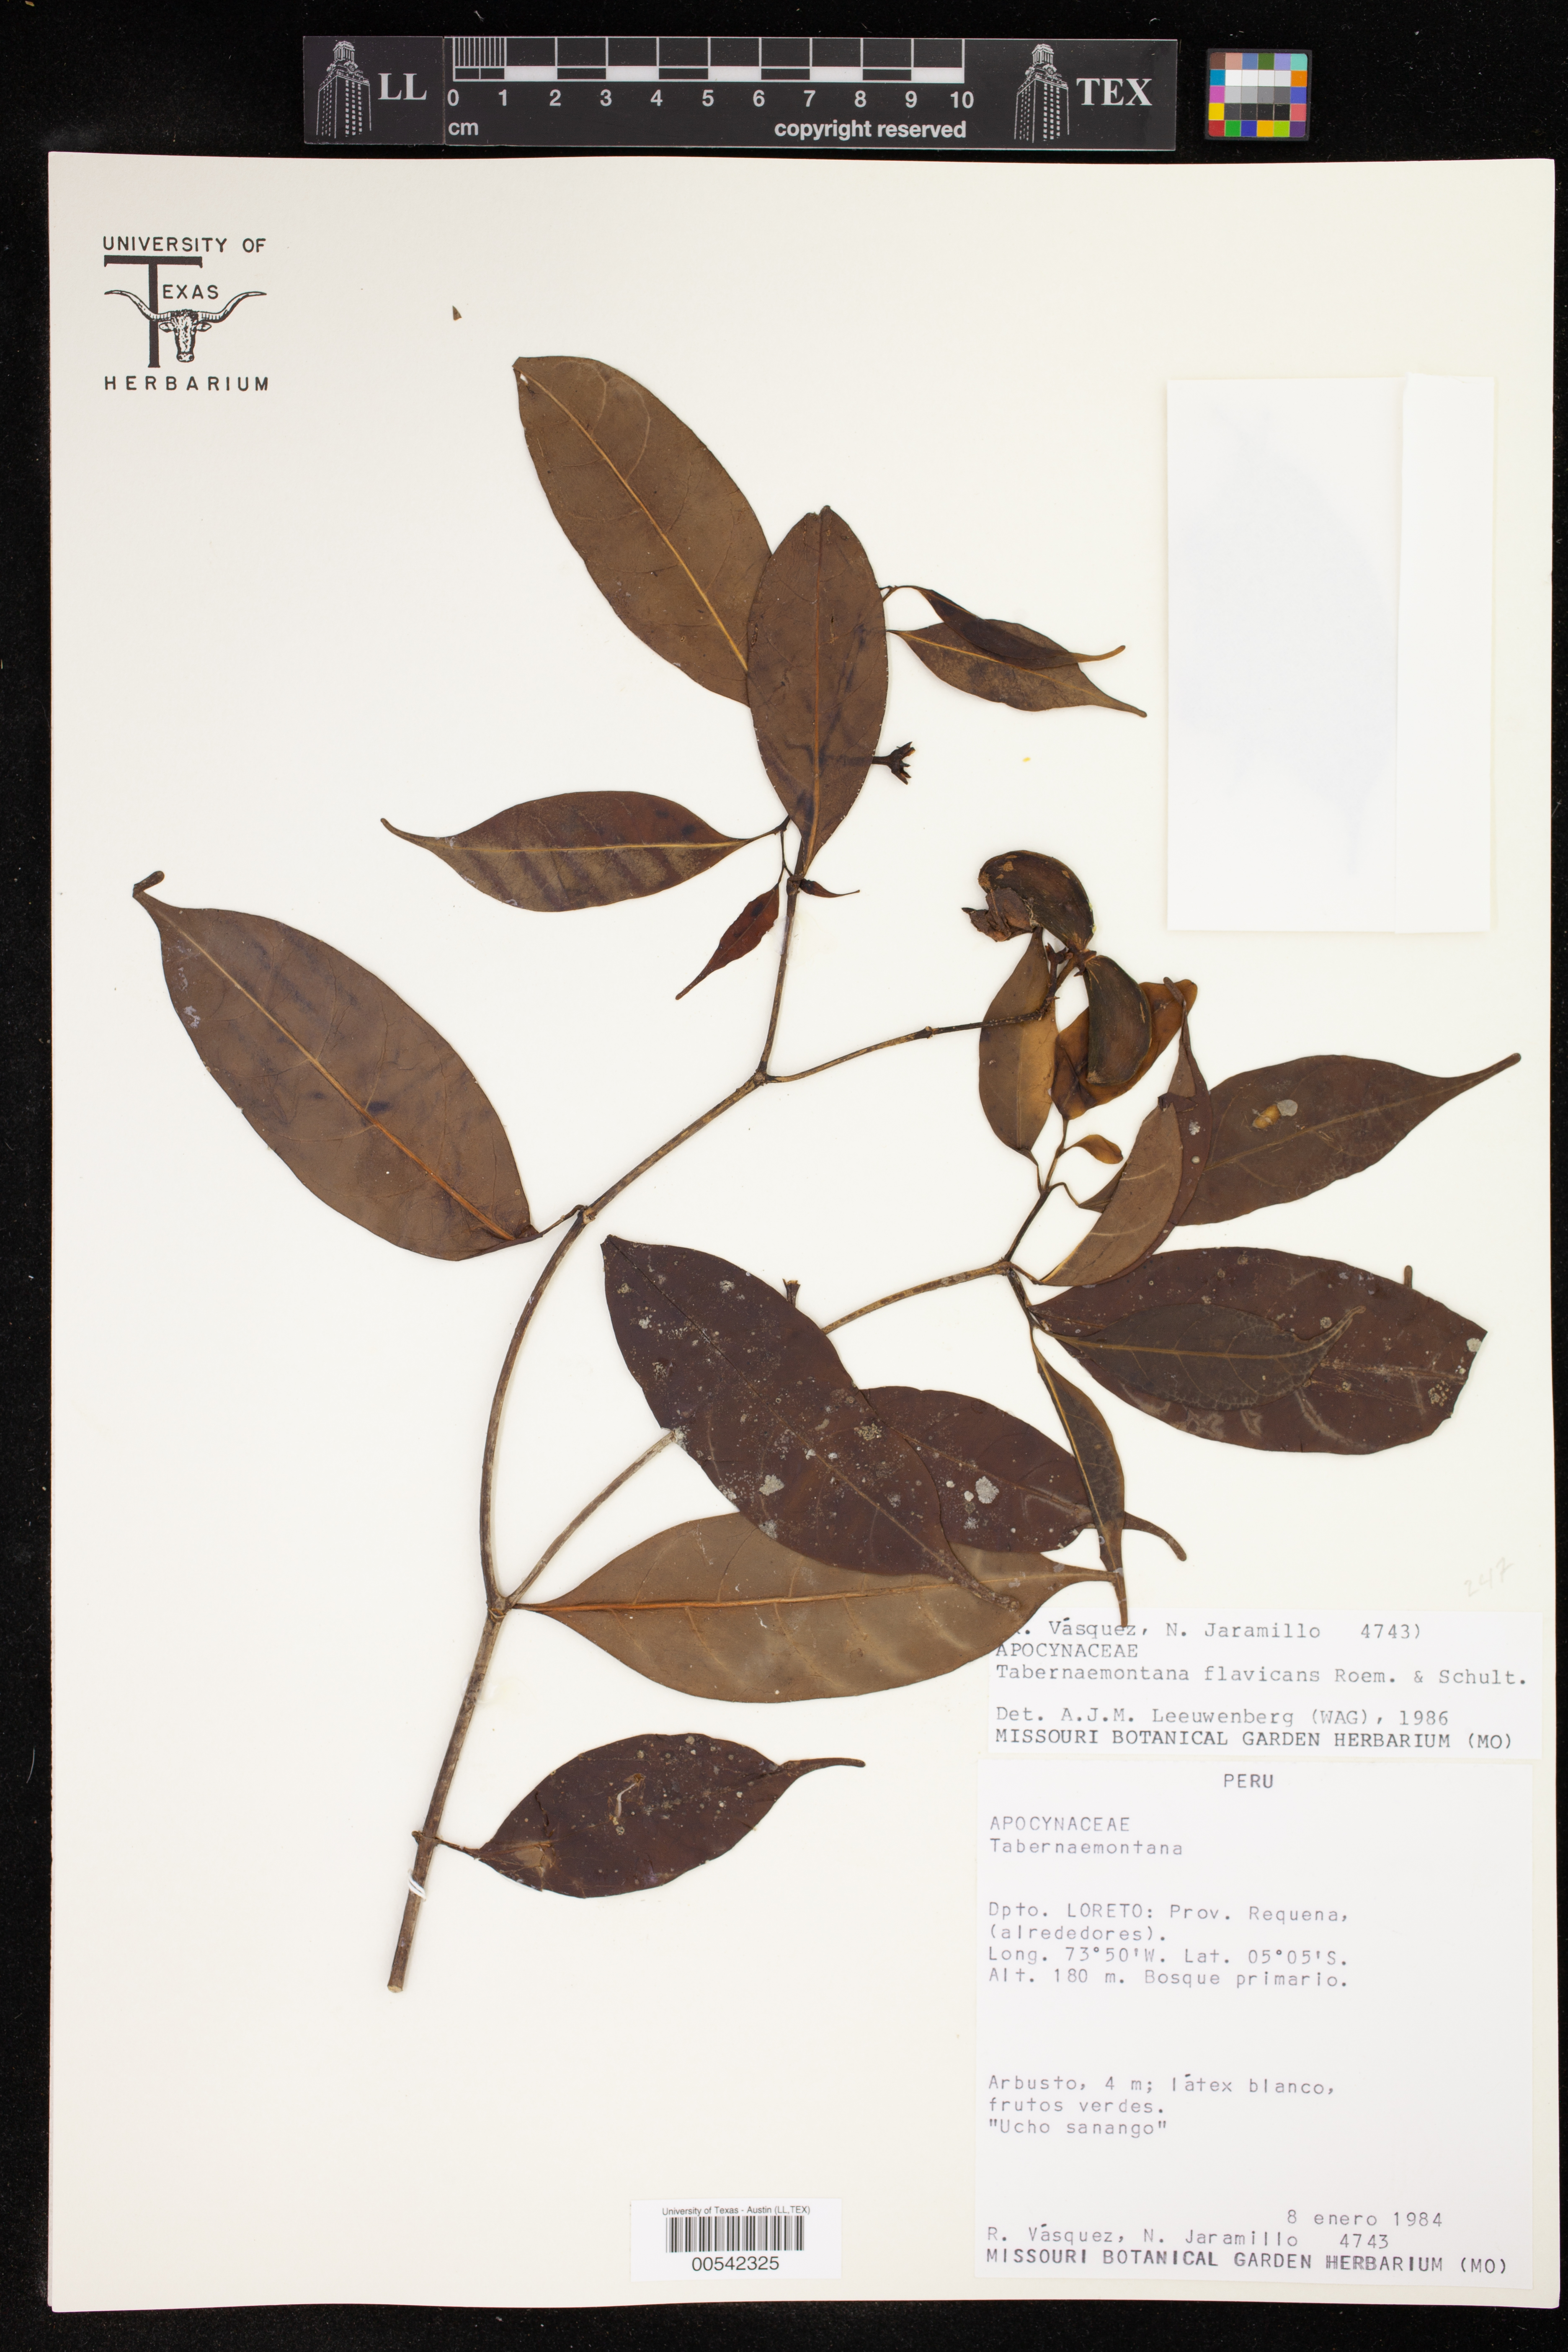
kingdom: Plantae
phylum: Tracheophyta
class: Magnoliopsida
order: Gentianales
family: Apocynaceae
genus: Tabernaemontana
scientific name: Tabernaemontana flavicans
